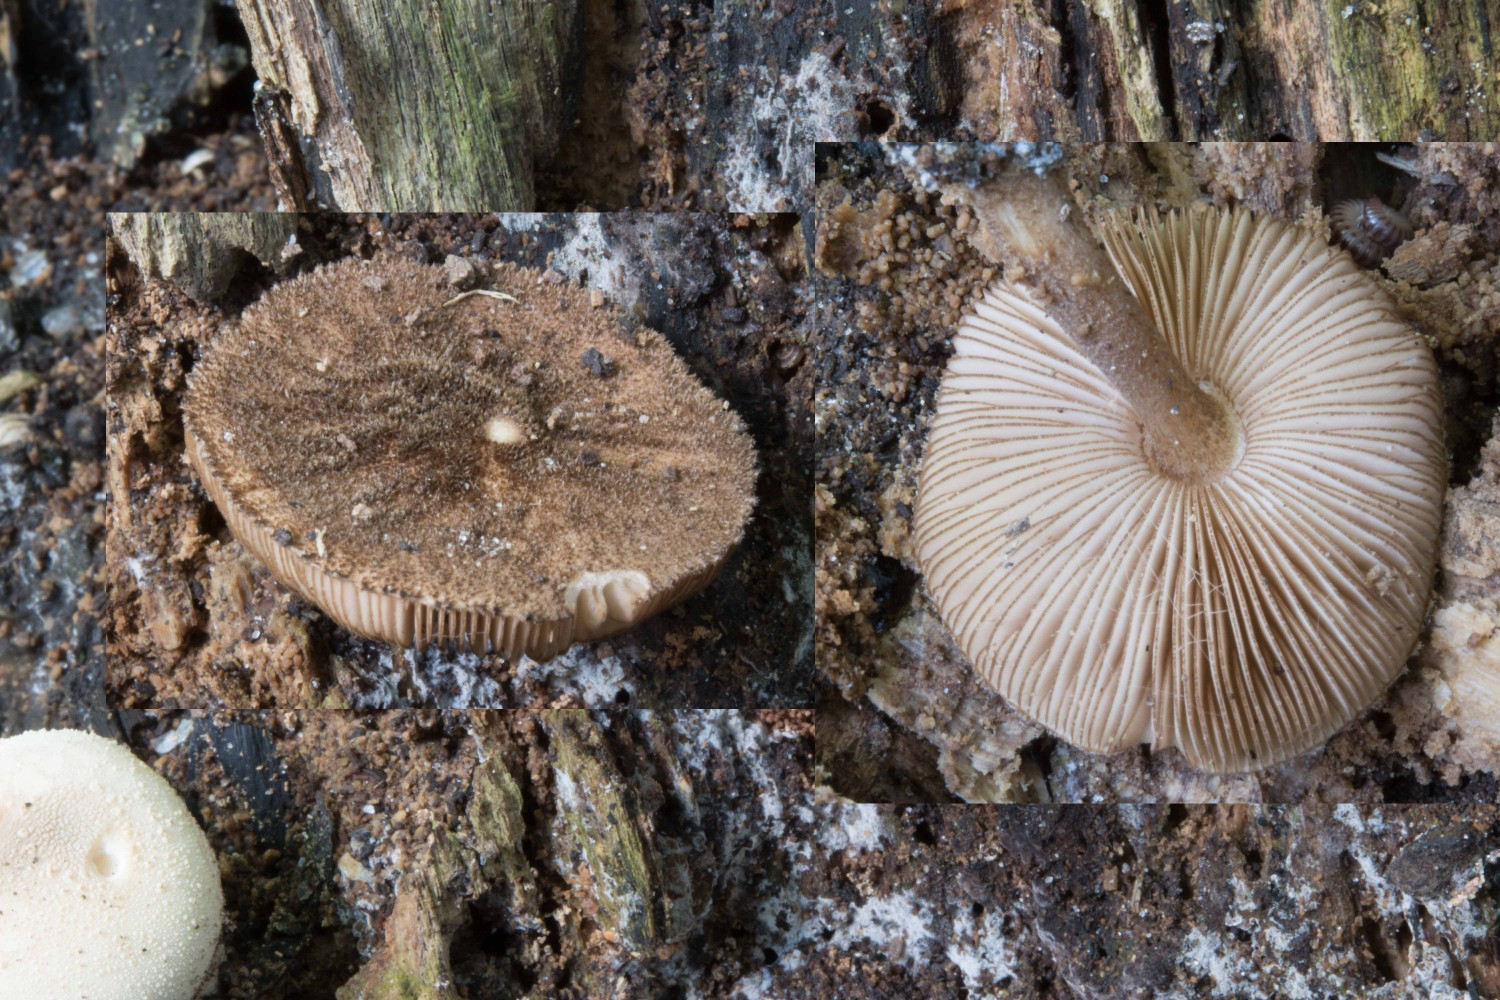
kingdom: Fungi
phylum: Basidiomycota
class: Agaricomycetes
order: Agaricales
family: Pluteaceae
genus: Pluteus
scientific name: Pluteus umbrosus
